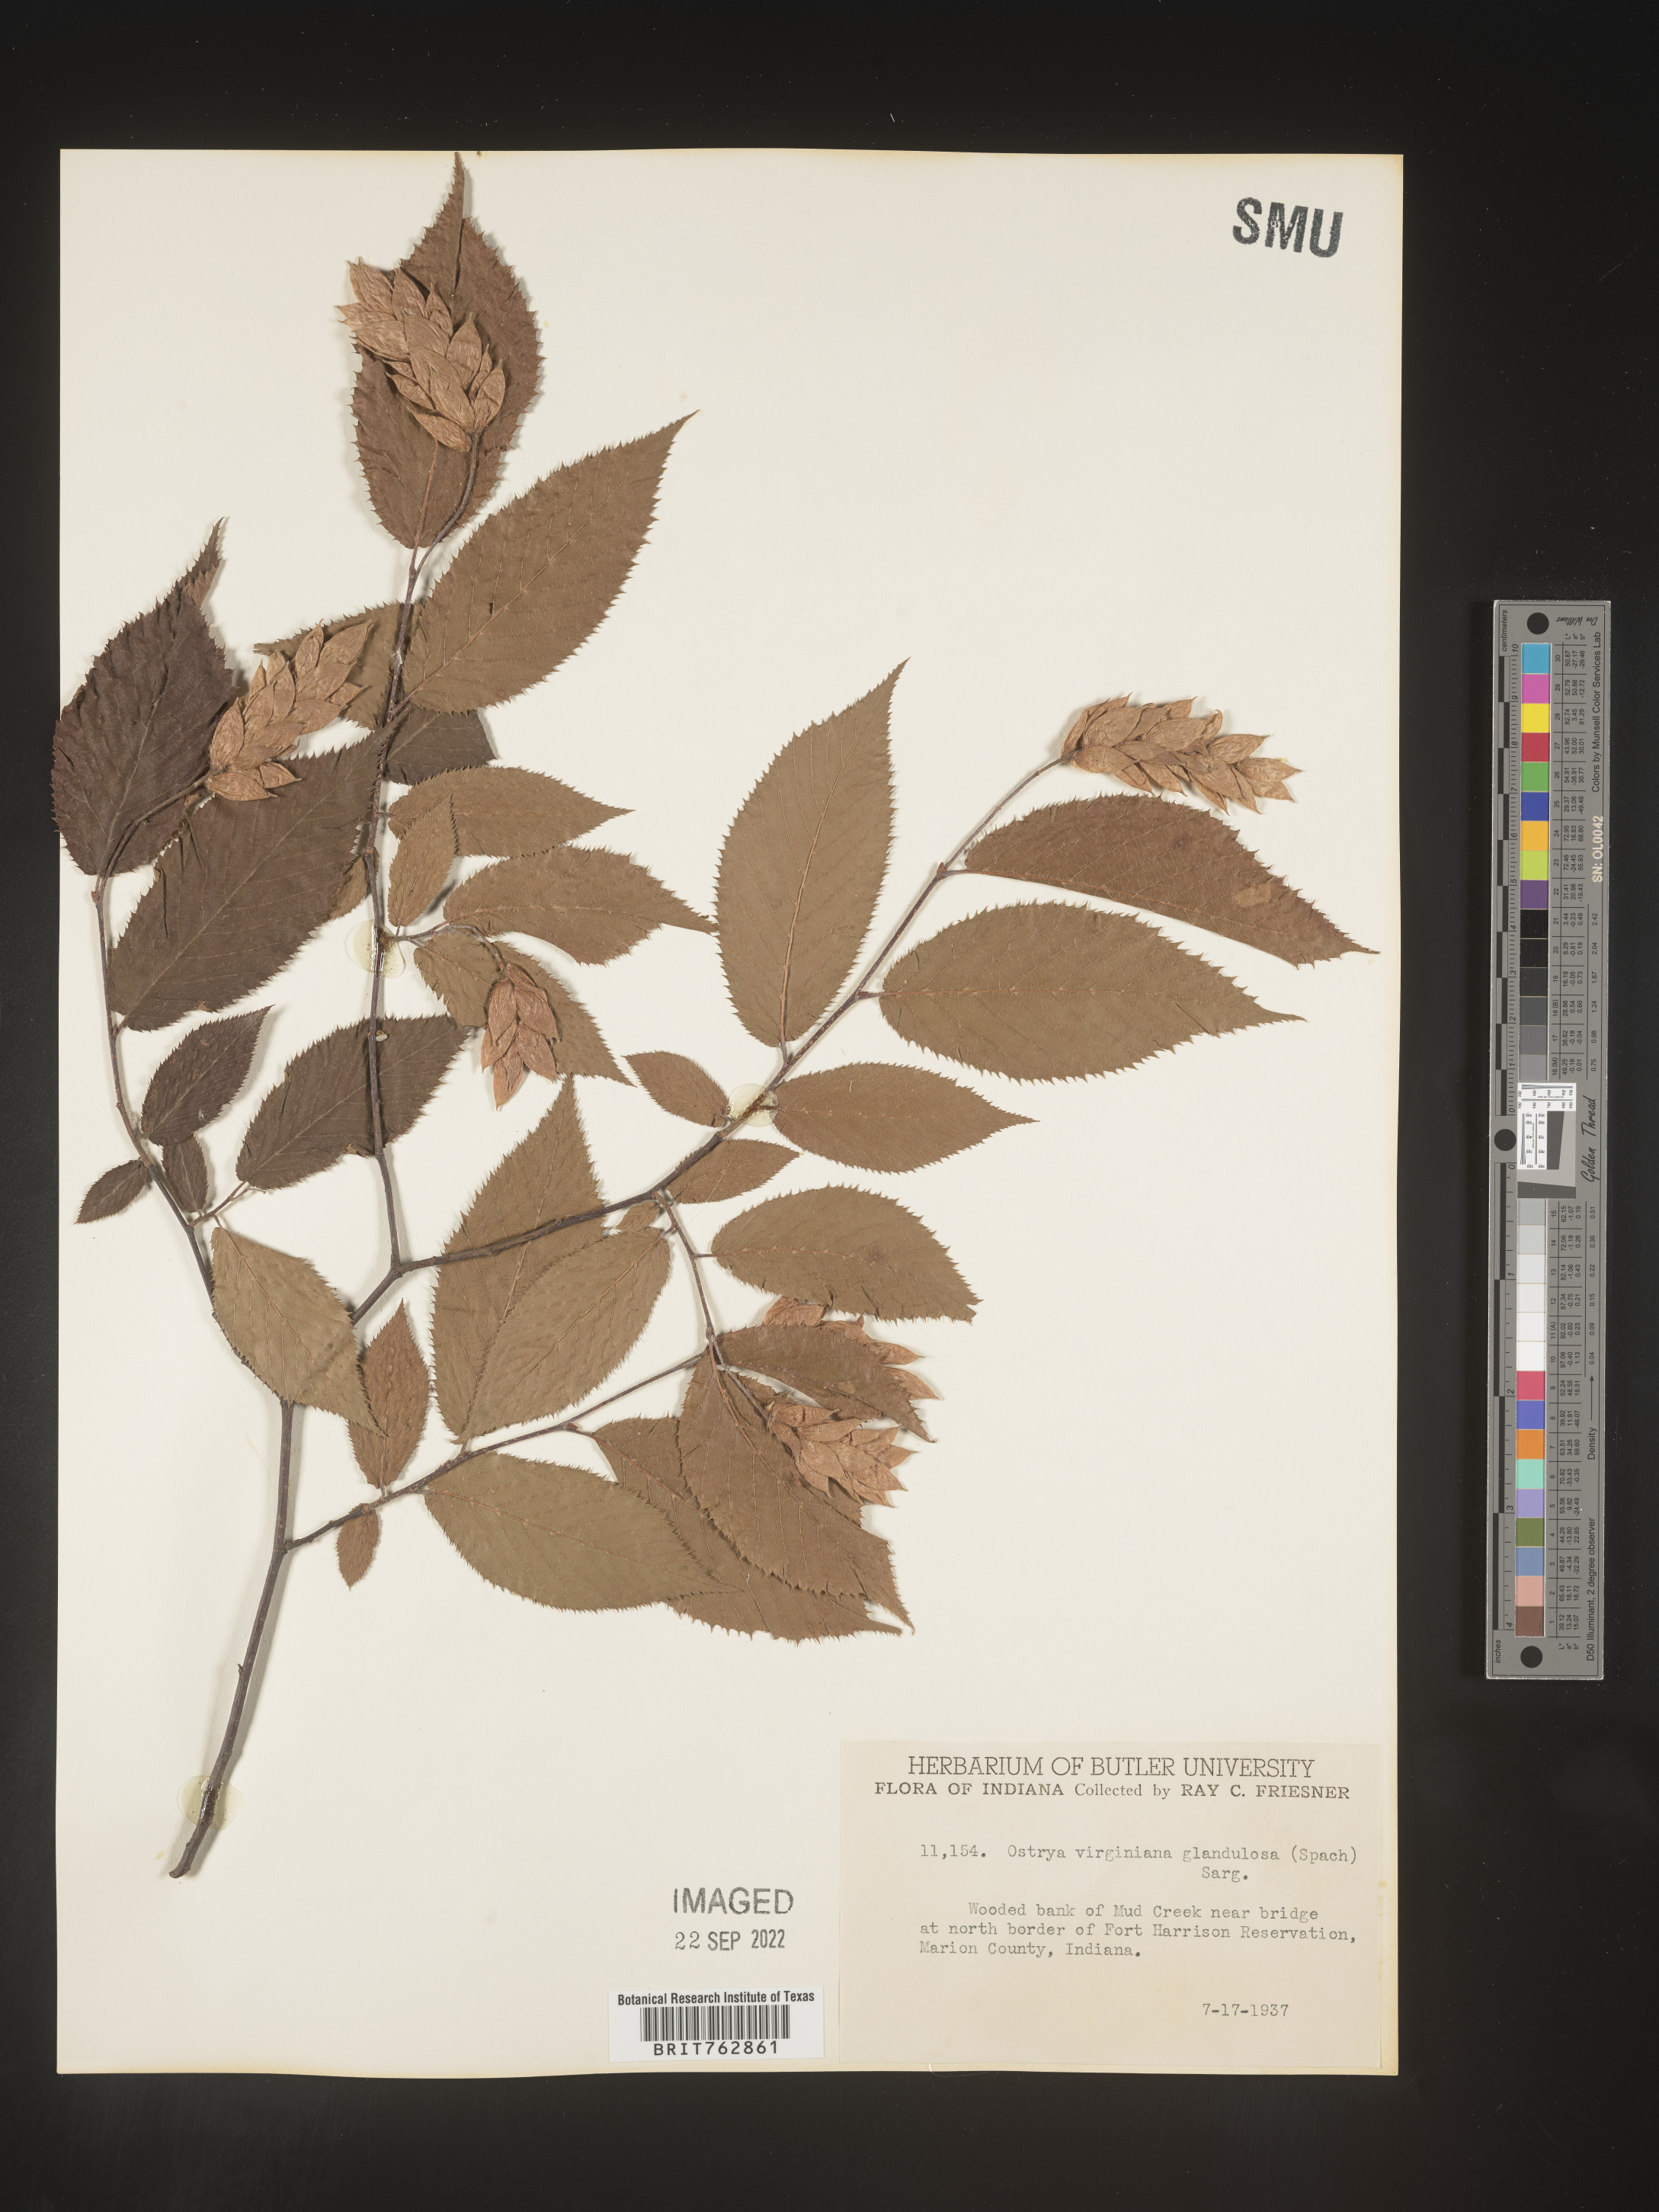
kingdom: Plantae
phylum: Tracheophyta
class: Magnoliopsida
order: Fagales
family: Betulaceae
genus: Ostrya
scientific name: Ostrya virginiana
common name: Ironwood
